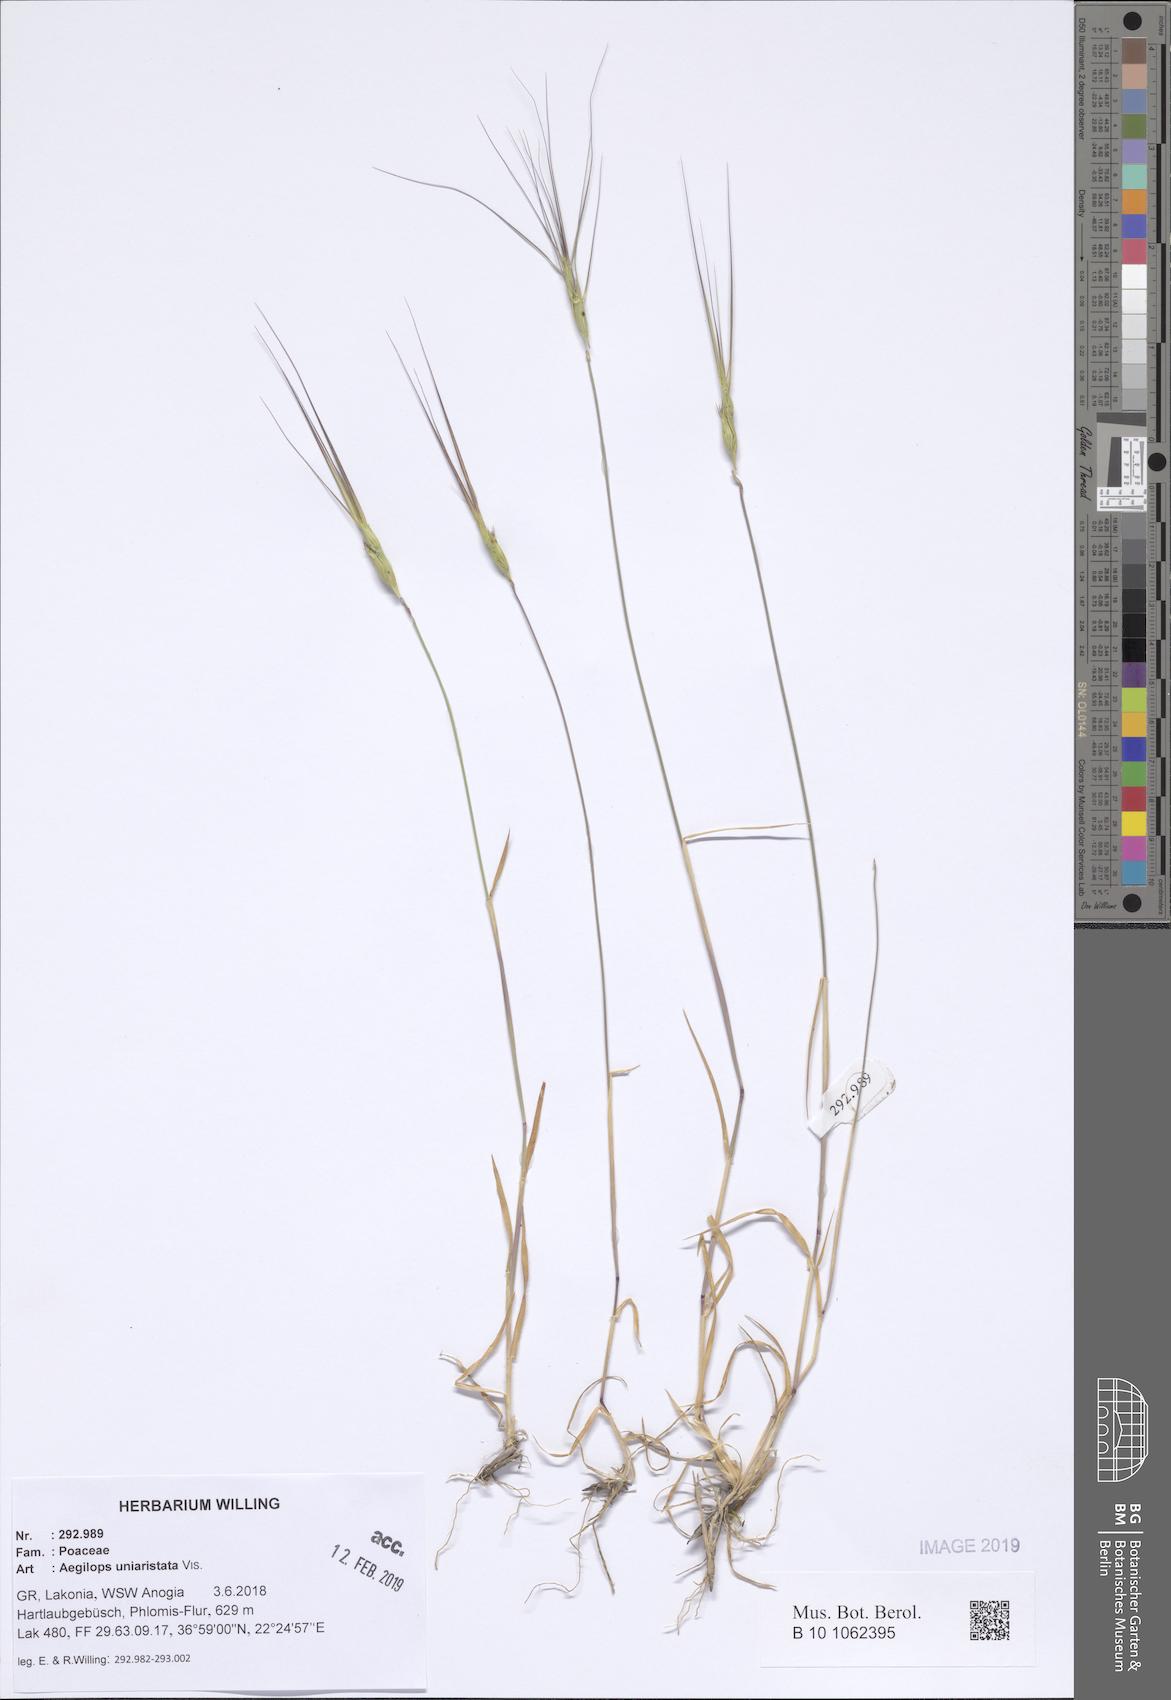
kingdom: Plantae
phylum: Tracheophyta
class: Liliopsida
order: Poales
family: Poaceae
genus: Aegilops
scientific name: Aegilops uniaristata
